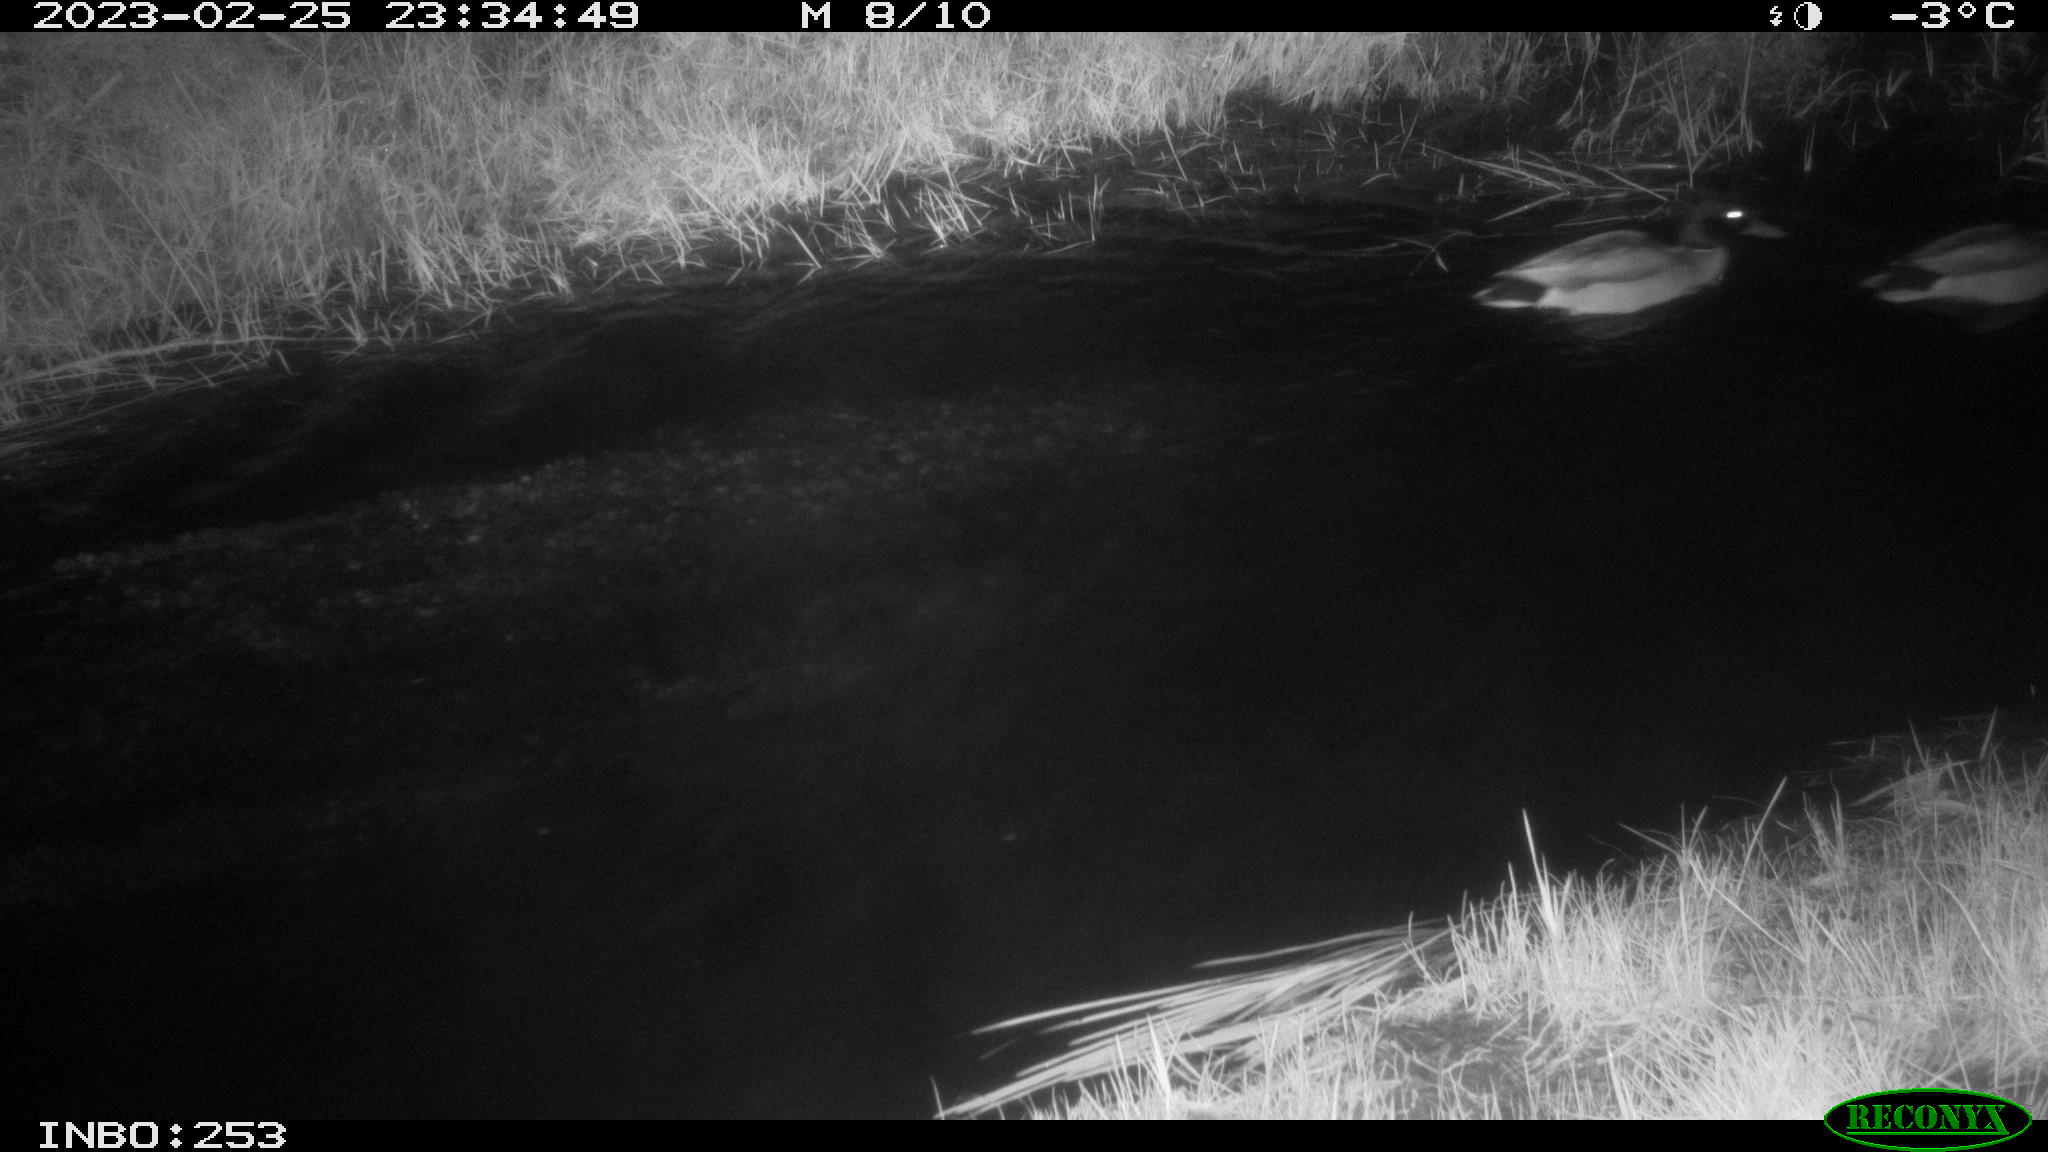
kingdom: Animalia
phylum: Chordata
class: Aves
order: Anseriformes
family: Anatidae
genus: Anas
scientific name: Anas
